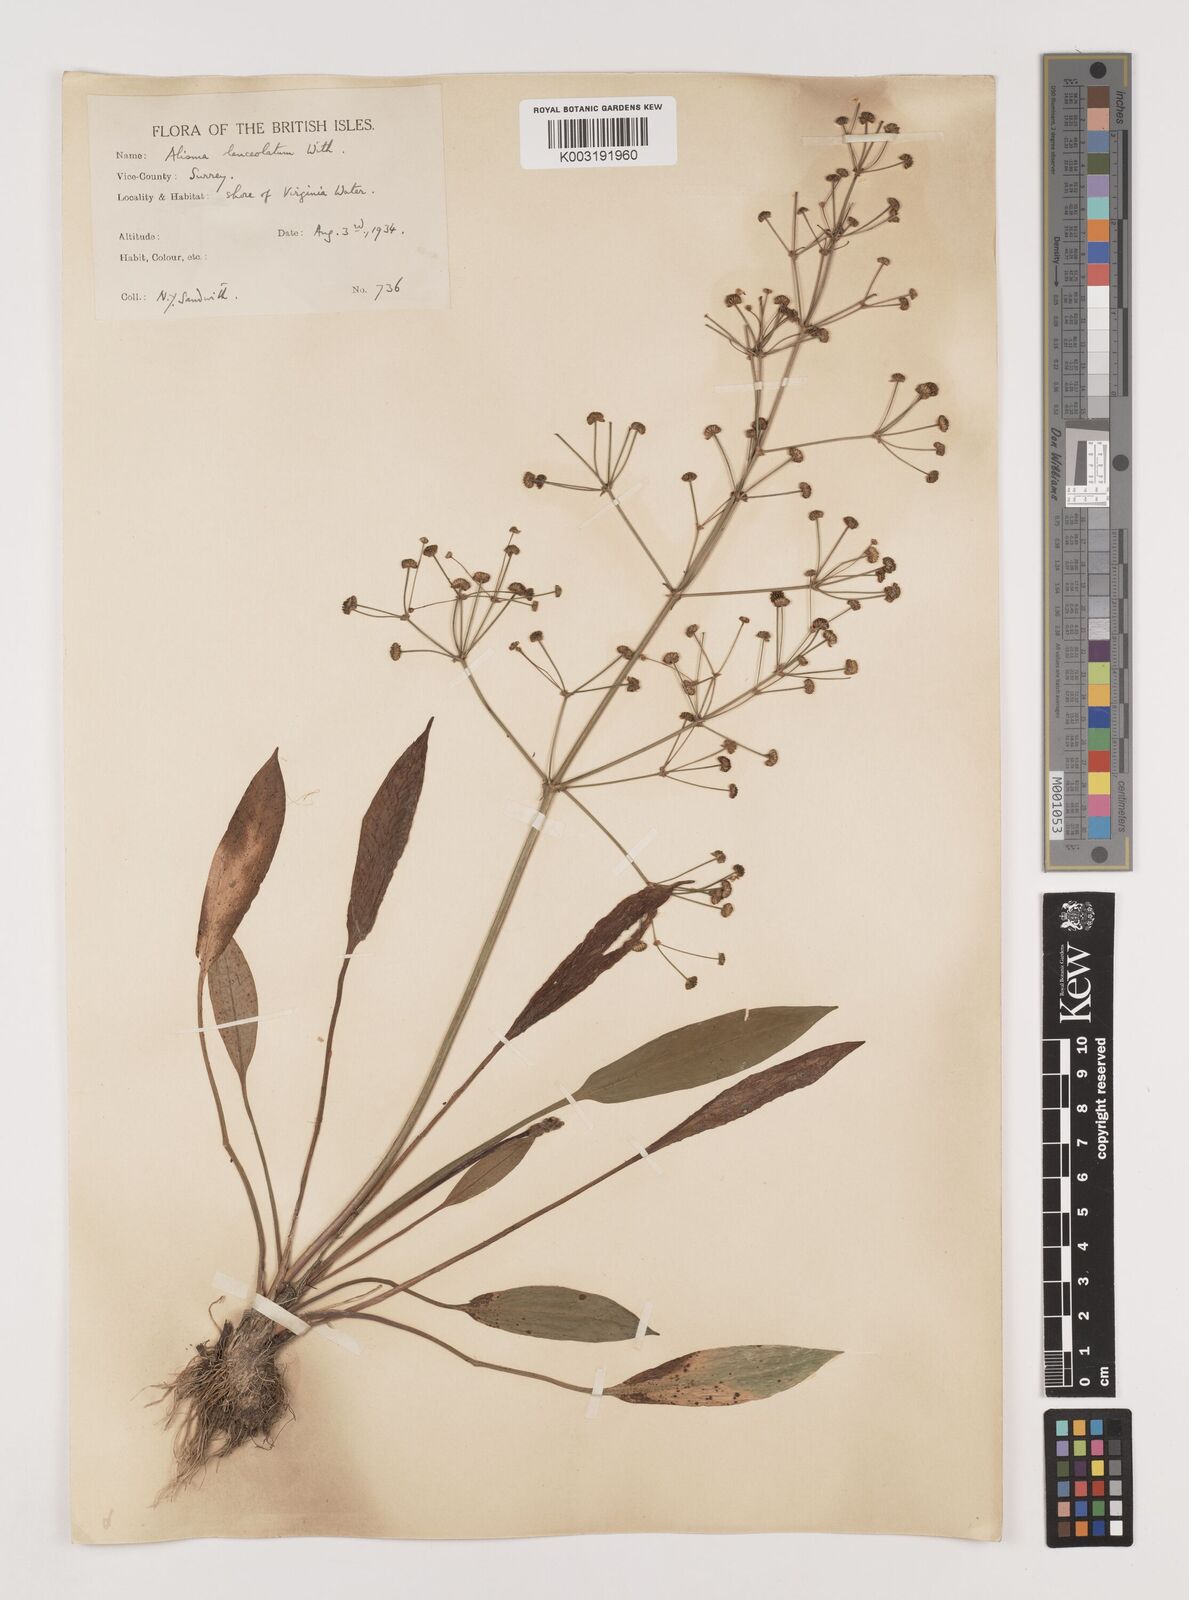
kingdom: Plantae
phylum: Tracheophyta
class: Liliopsida
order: Alismatales
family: Alismataceae
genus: Alisma
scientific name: Alisma lanceolatum
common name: Narrow-leaved water-plantain
